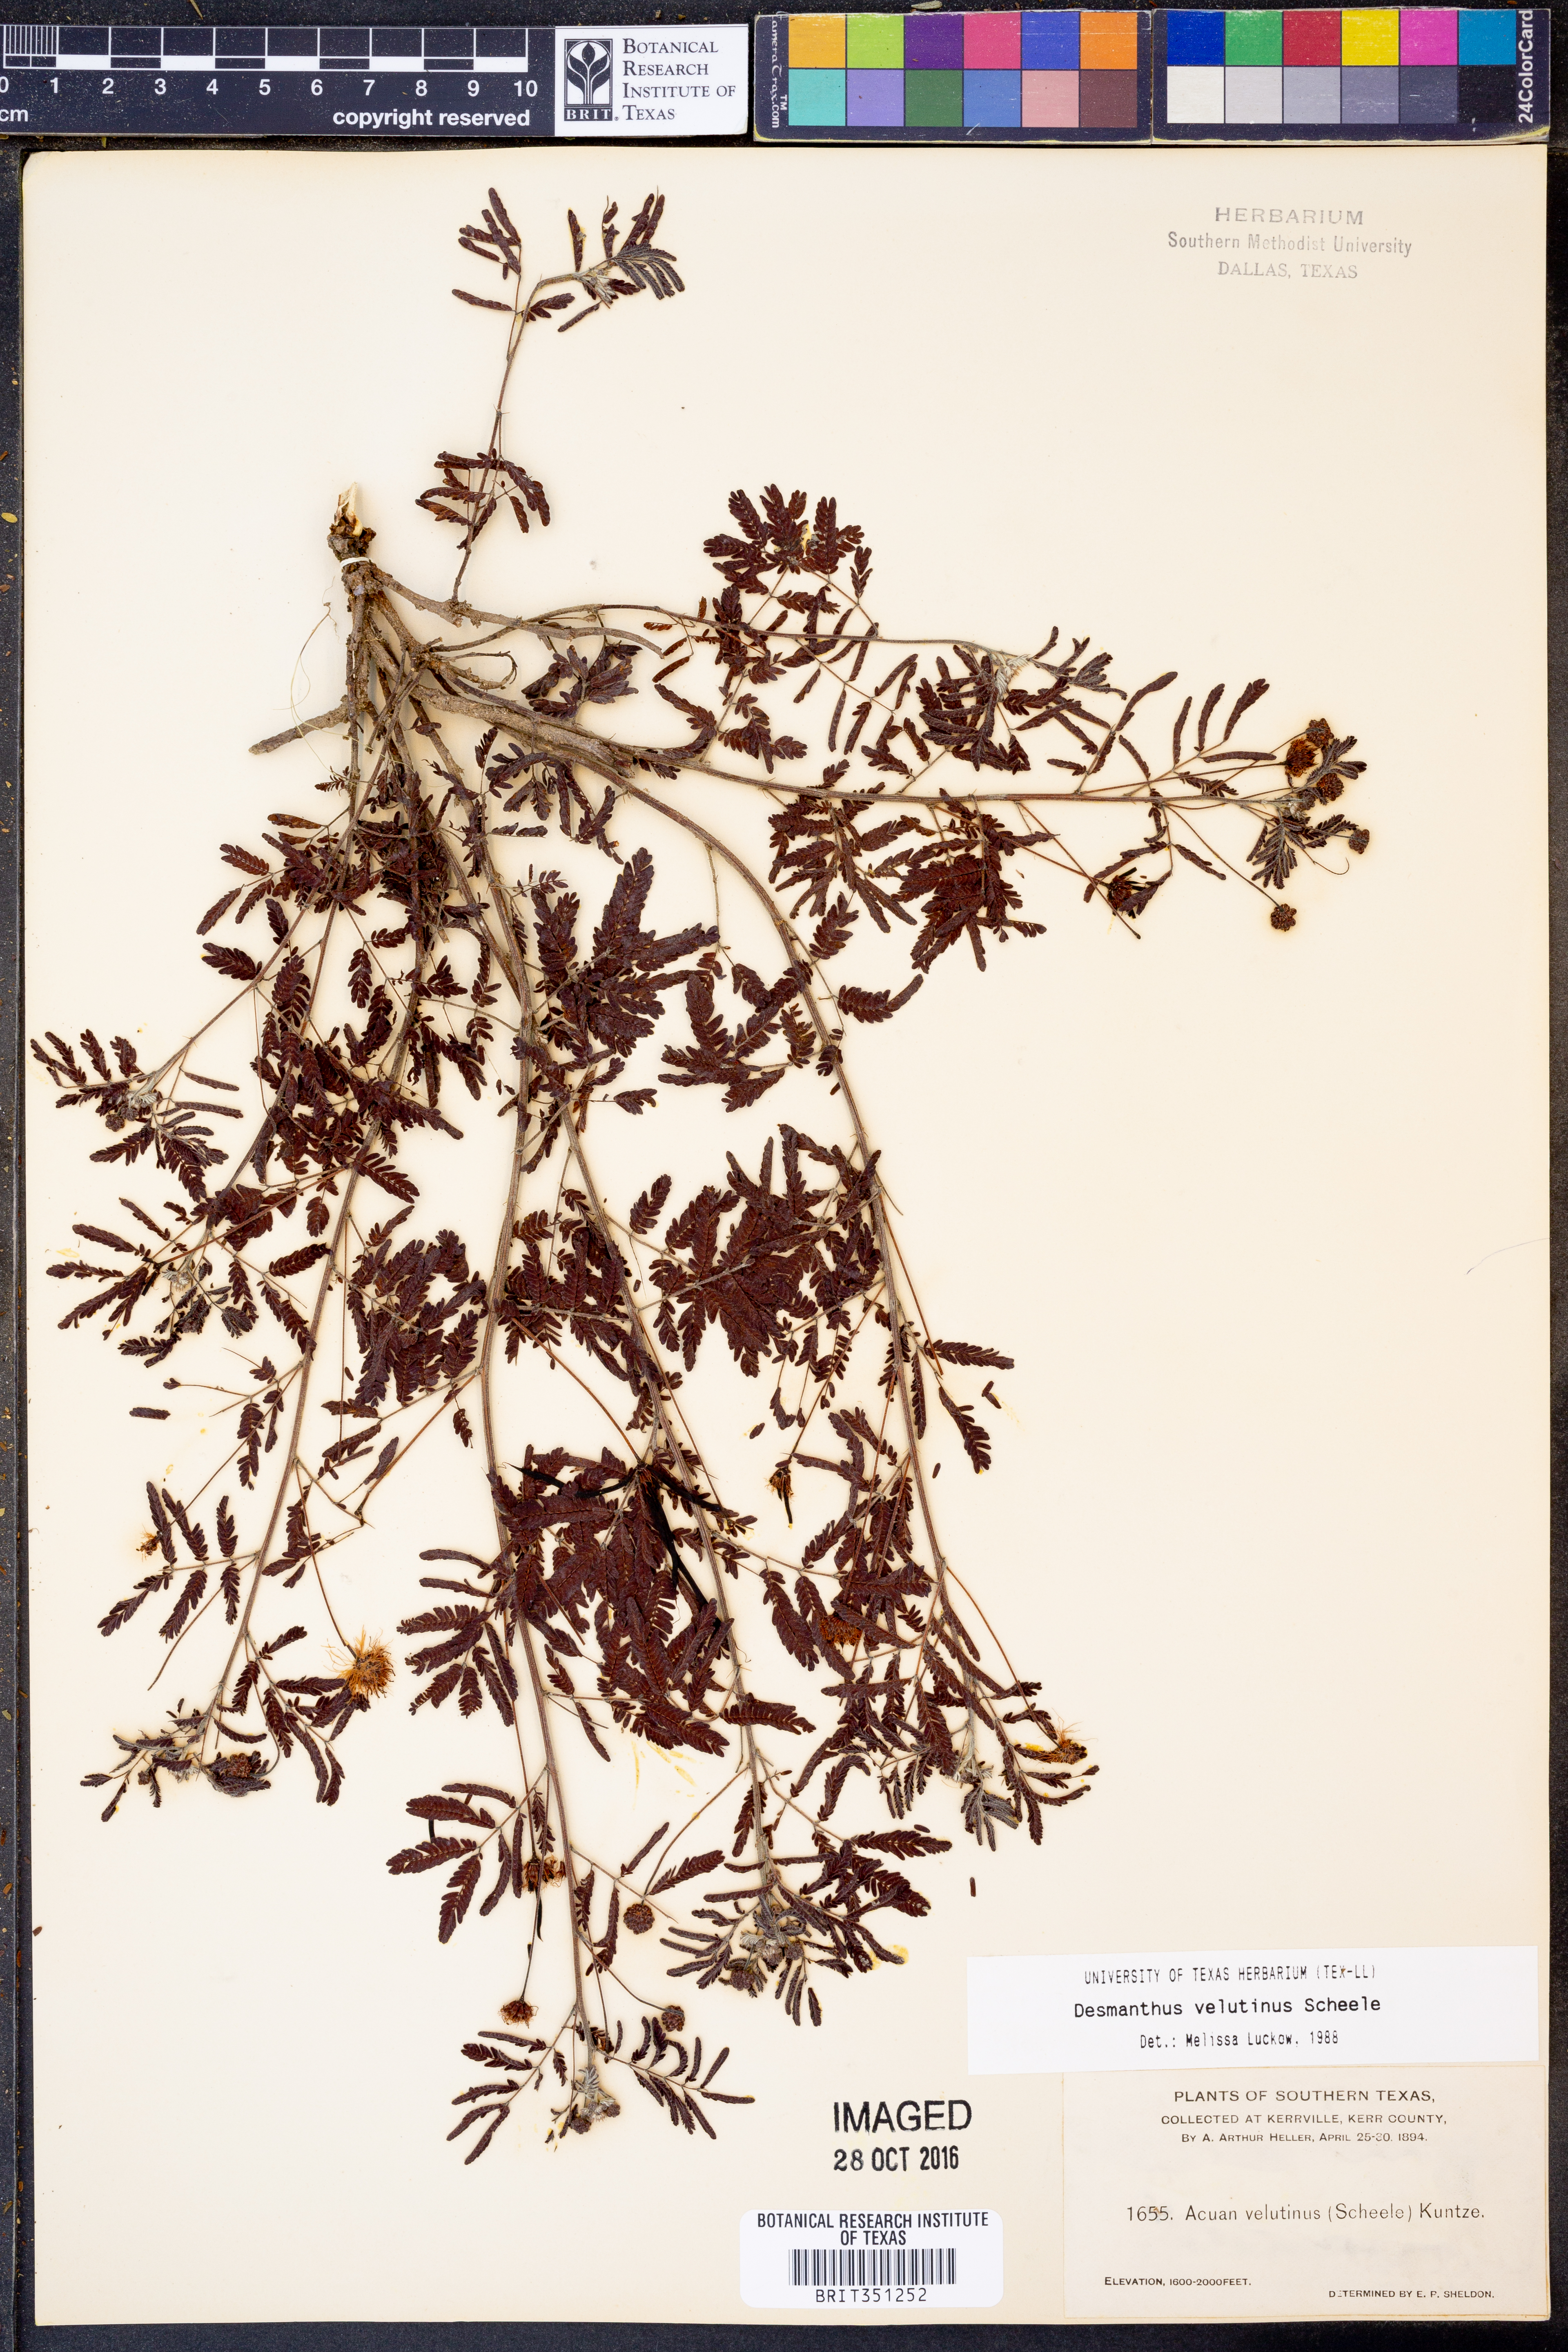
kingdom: Plantae
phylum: Tracheophyta
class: Magnoliopsida
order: Fabales
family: Fabaceae
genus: Desmanthus
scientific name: Desmanthus velutinus
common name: Velvet bundle-flower
